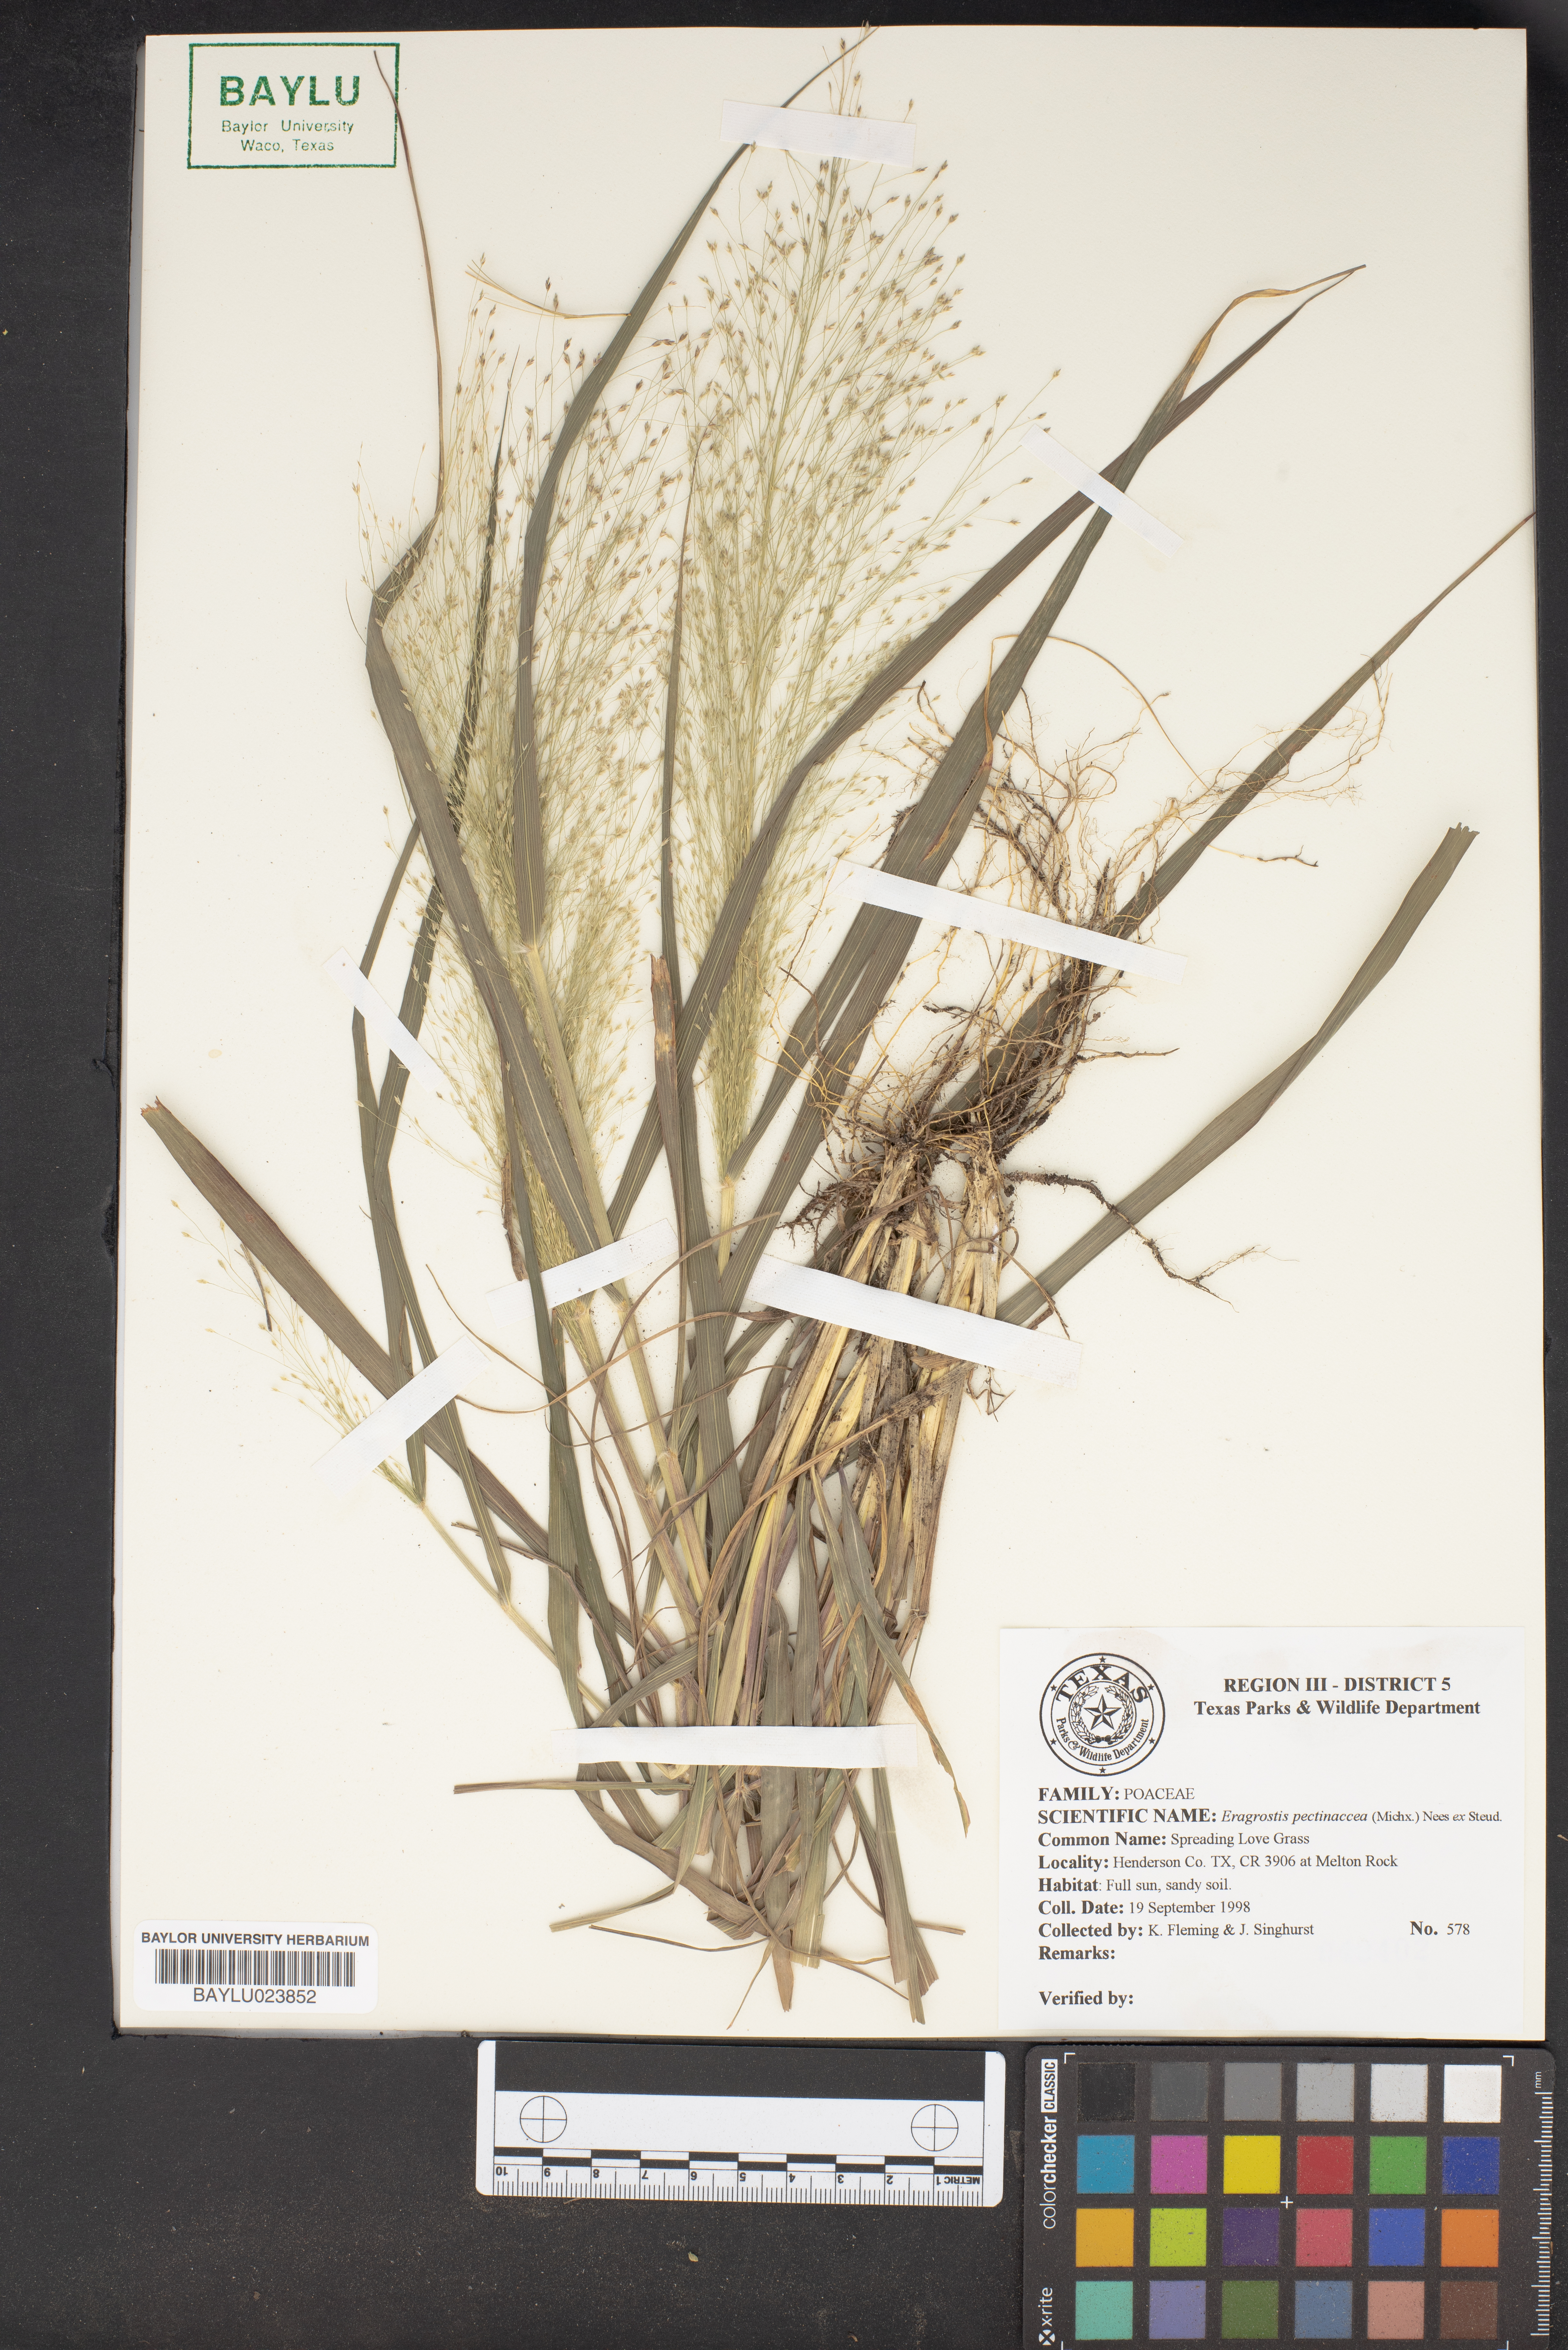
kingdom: Plantae
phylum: Tracheophyta
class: Liliopsida
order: Poales
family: Poaceae
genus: Eragrostis
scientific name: Eragrostis pectinacea
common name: Tufted lovegrass
